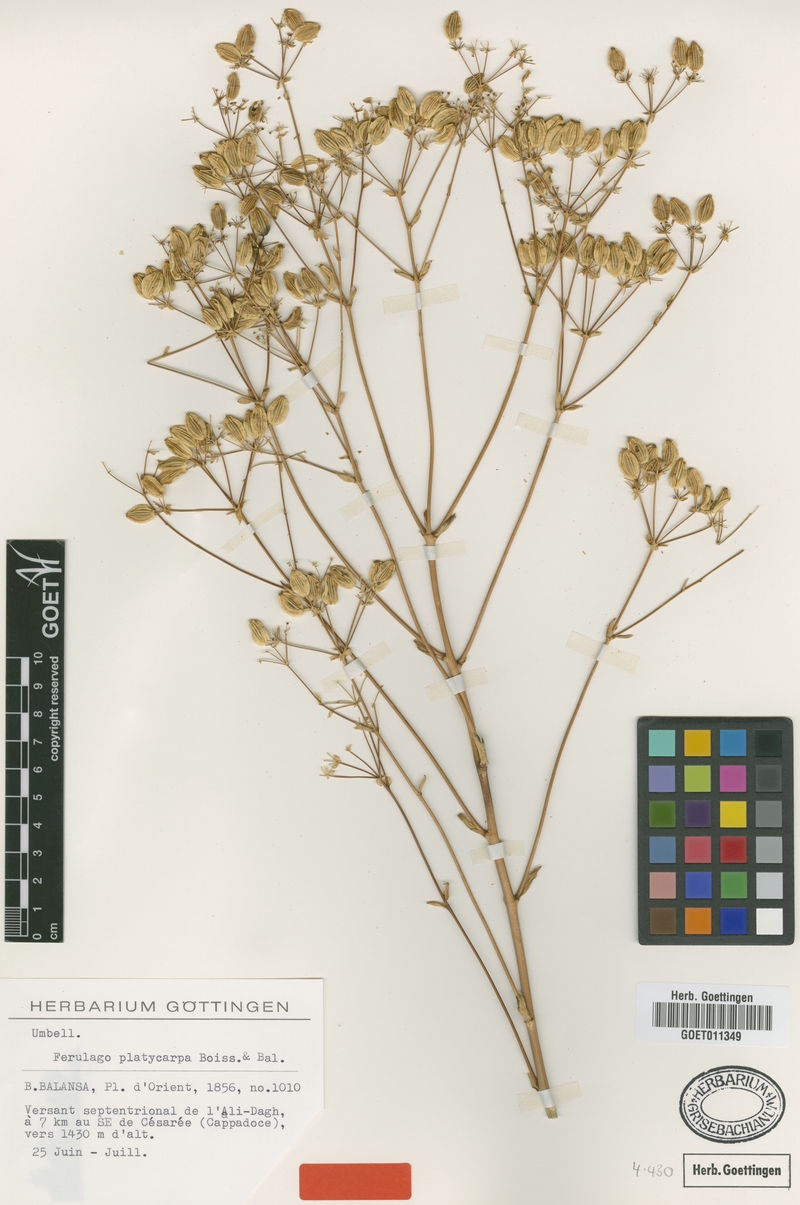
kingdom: Plantae
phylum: Tracheophyta
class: Magnoliopsida
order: Apiales
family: Apiaceae
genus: Ferulago
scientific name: Ferulago platycarpa
